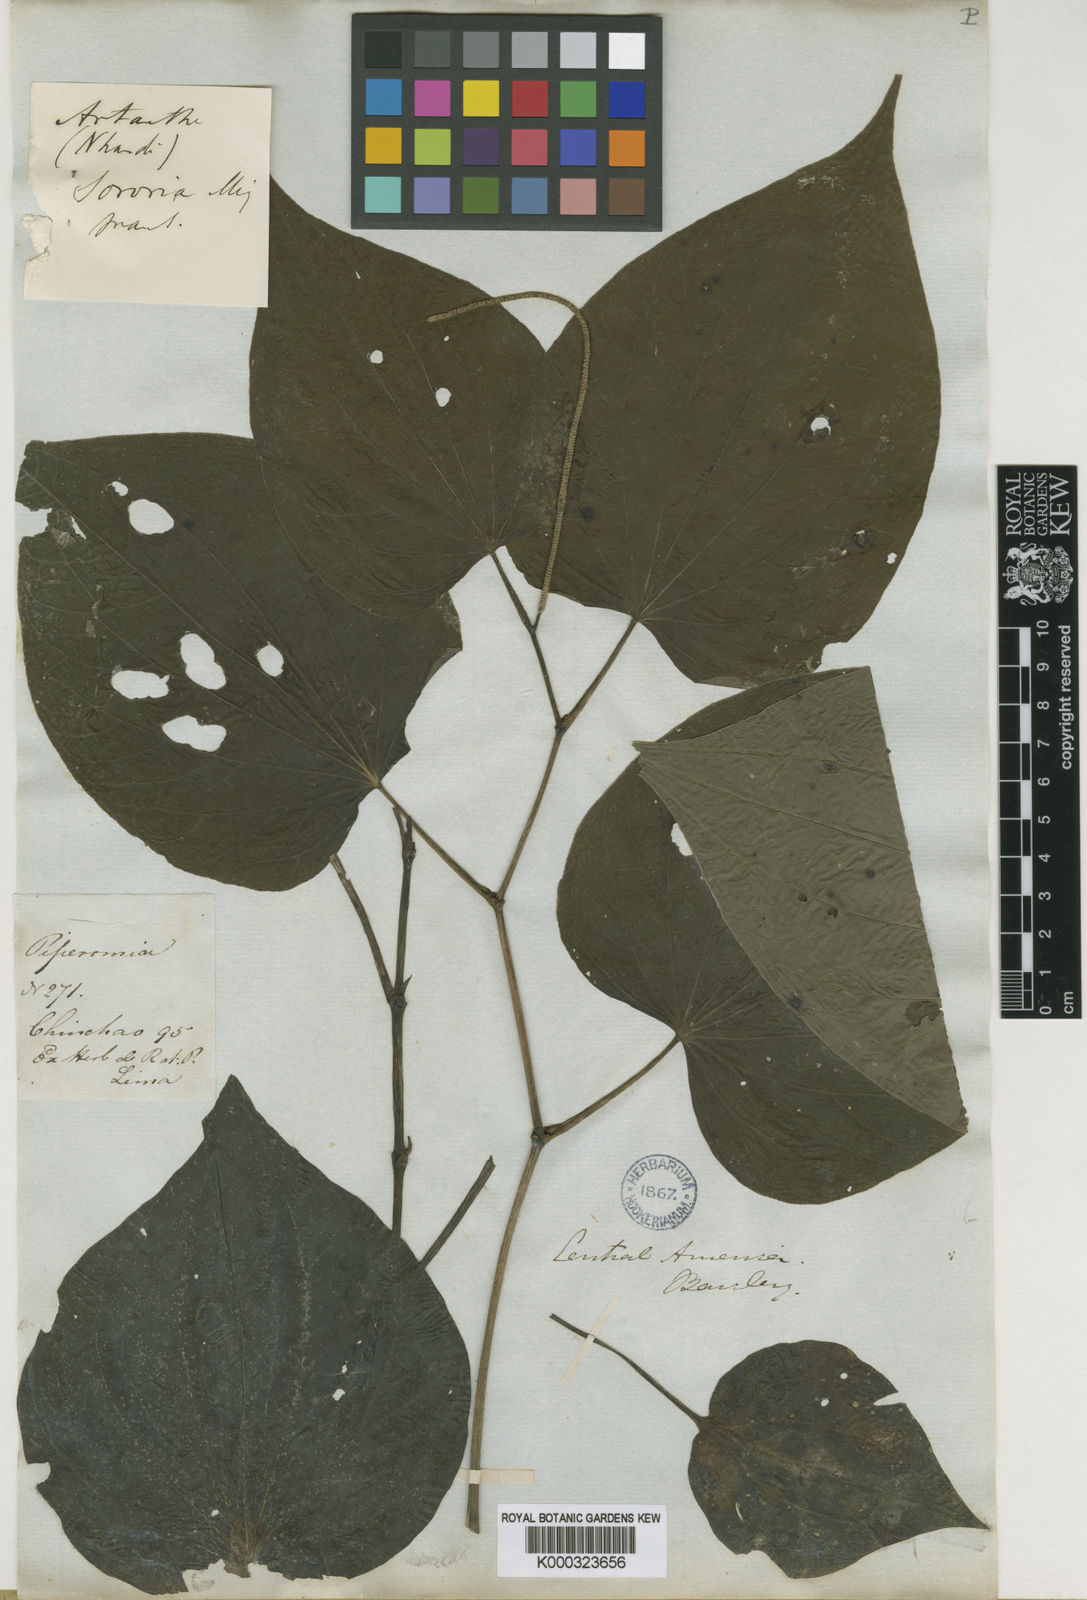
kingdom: Plantae
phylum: Tracheophyta
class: Magnoliopsida
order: Piperales
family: Piperaceae
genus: Piper
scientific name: Piper marginatum
